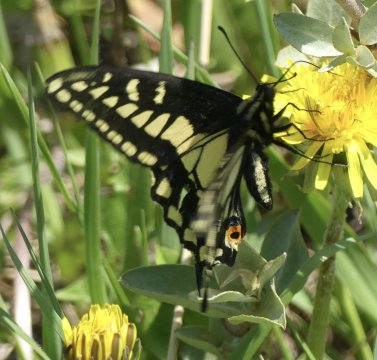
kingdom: Animalia
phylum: Arthropoda
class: Insecta
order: Lepidoptera
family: Papilionidae
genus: Papilio
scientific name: Papilio zelicaon
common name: Anise Swallowtail
